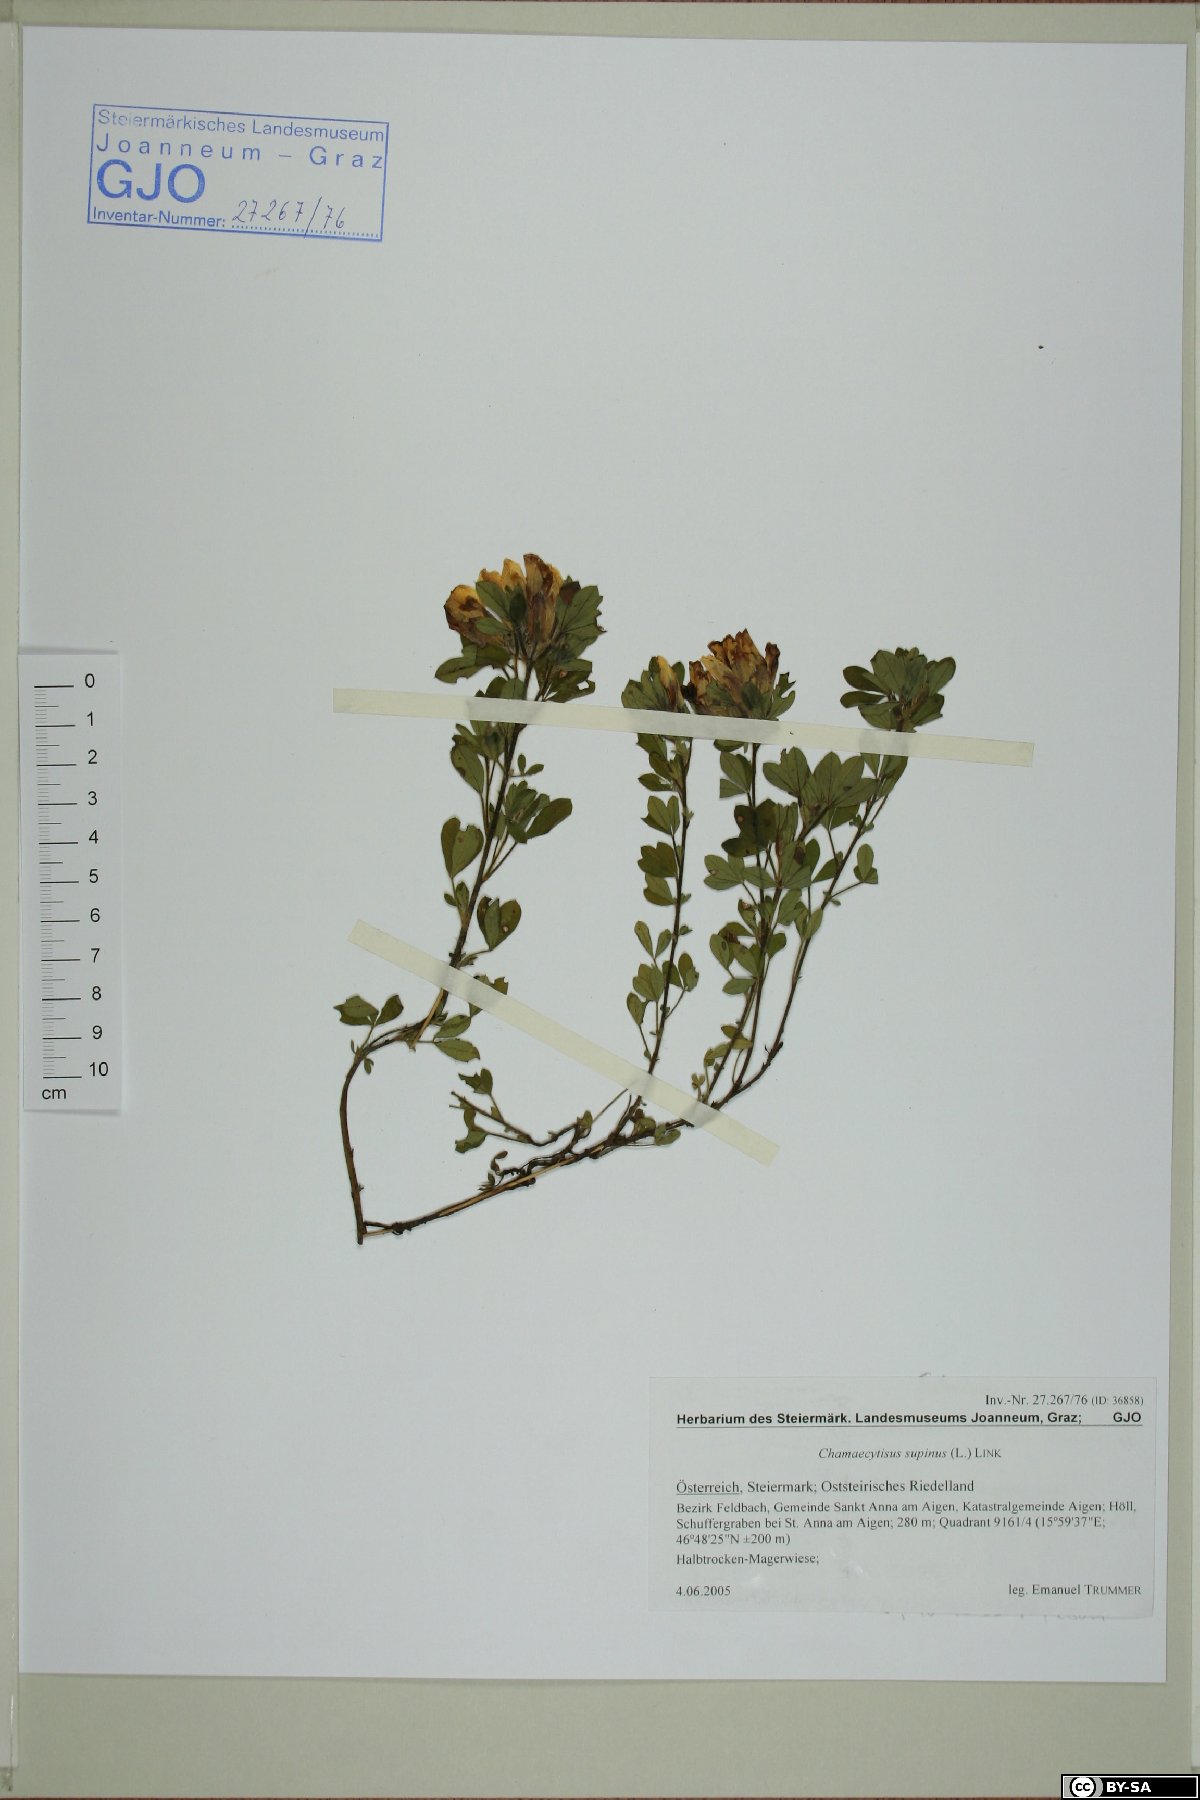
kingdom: Plantae
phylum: Tracheophyta
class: Magnoliopsida
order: Fabales
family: Fabaceae
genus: Chamaecytisus
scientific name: Chamaecytisus supinus
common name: Clustered broom
